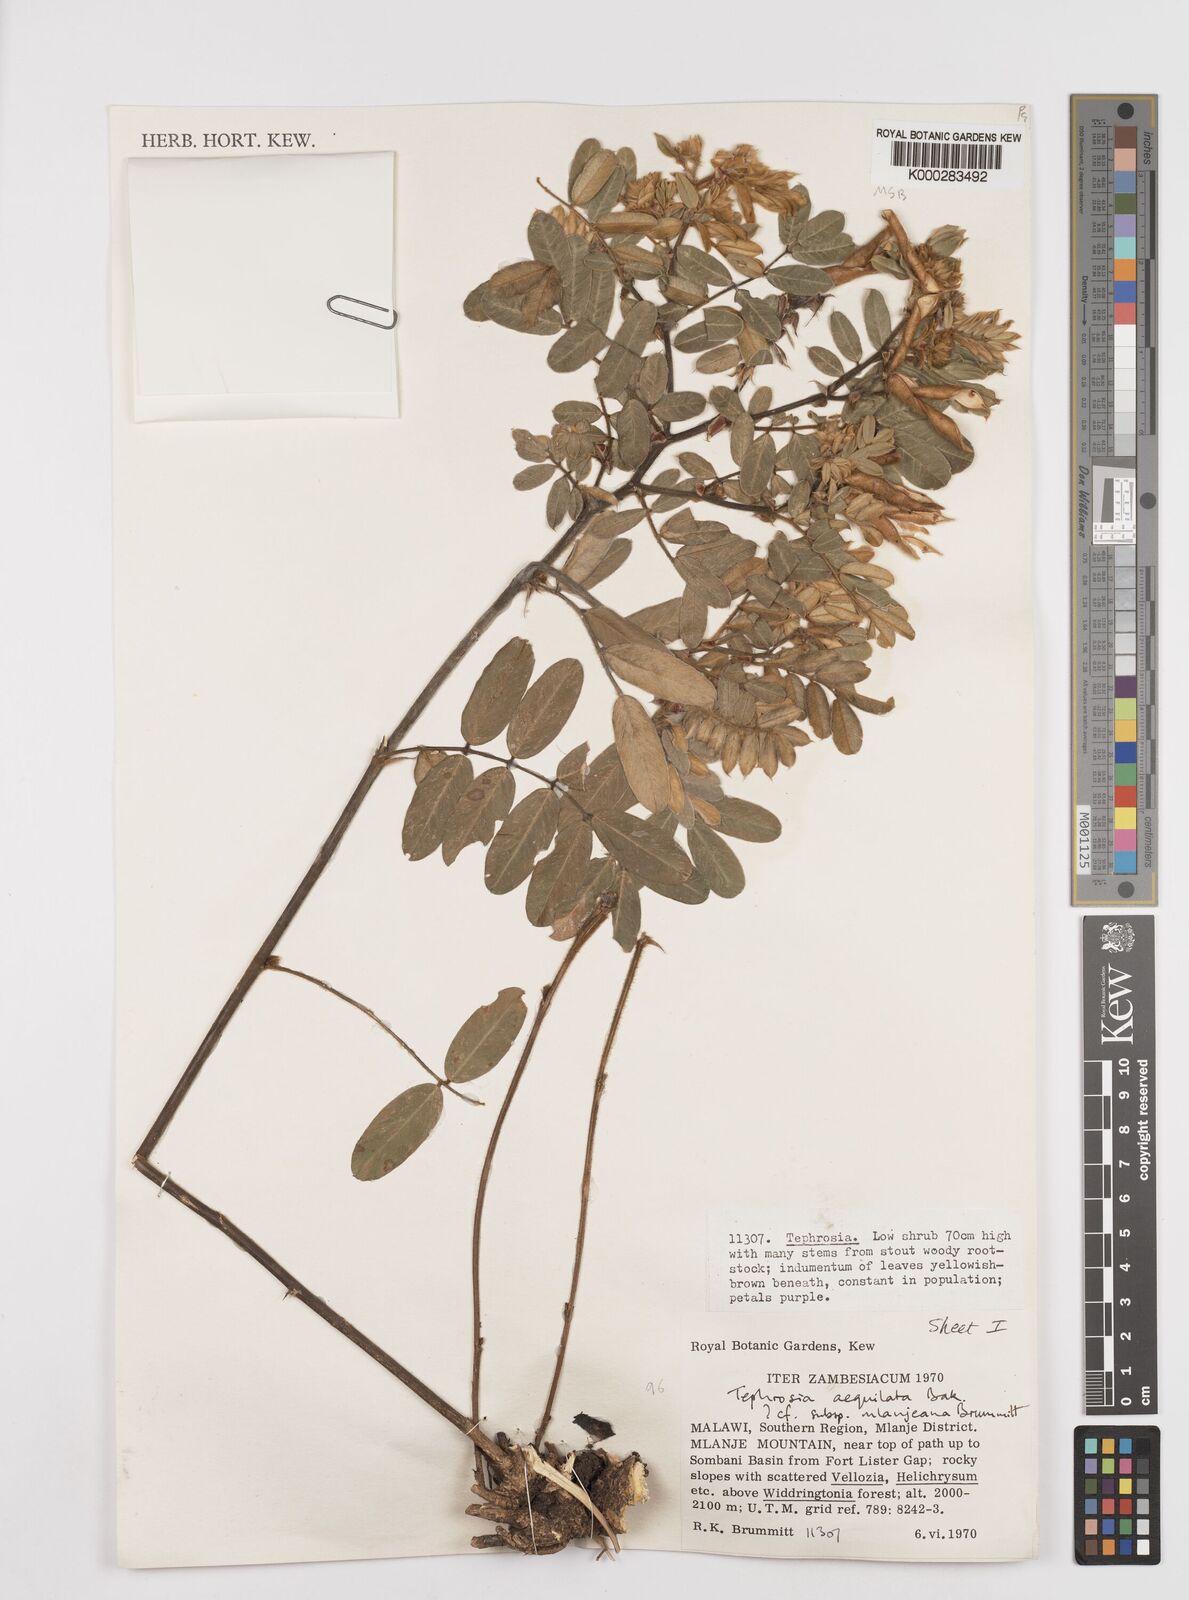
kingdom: Plantae
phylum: Tracheophyta
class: Magnoliopsida
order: Fabales
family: Fabaceae
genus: Tephrosia
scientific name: Tephrosia aequilata
